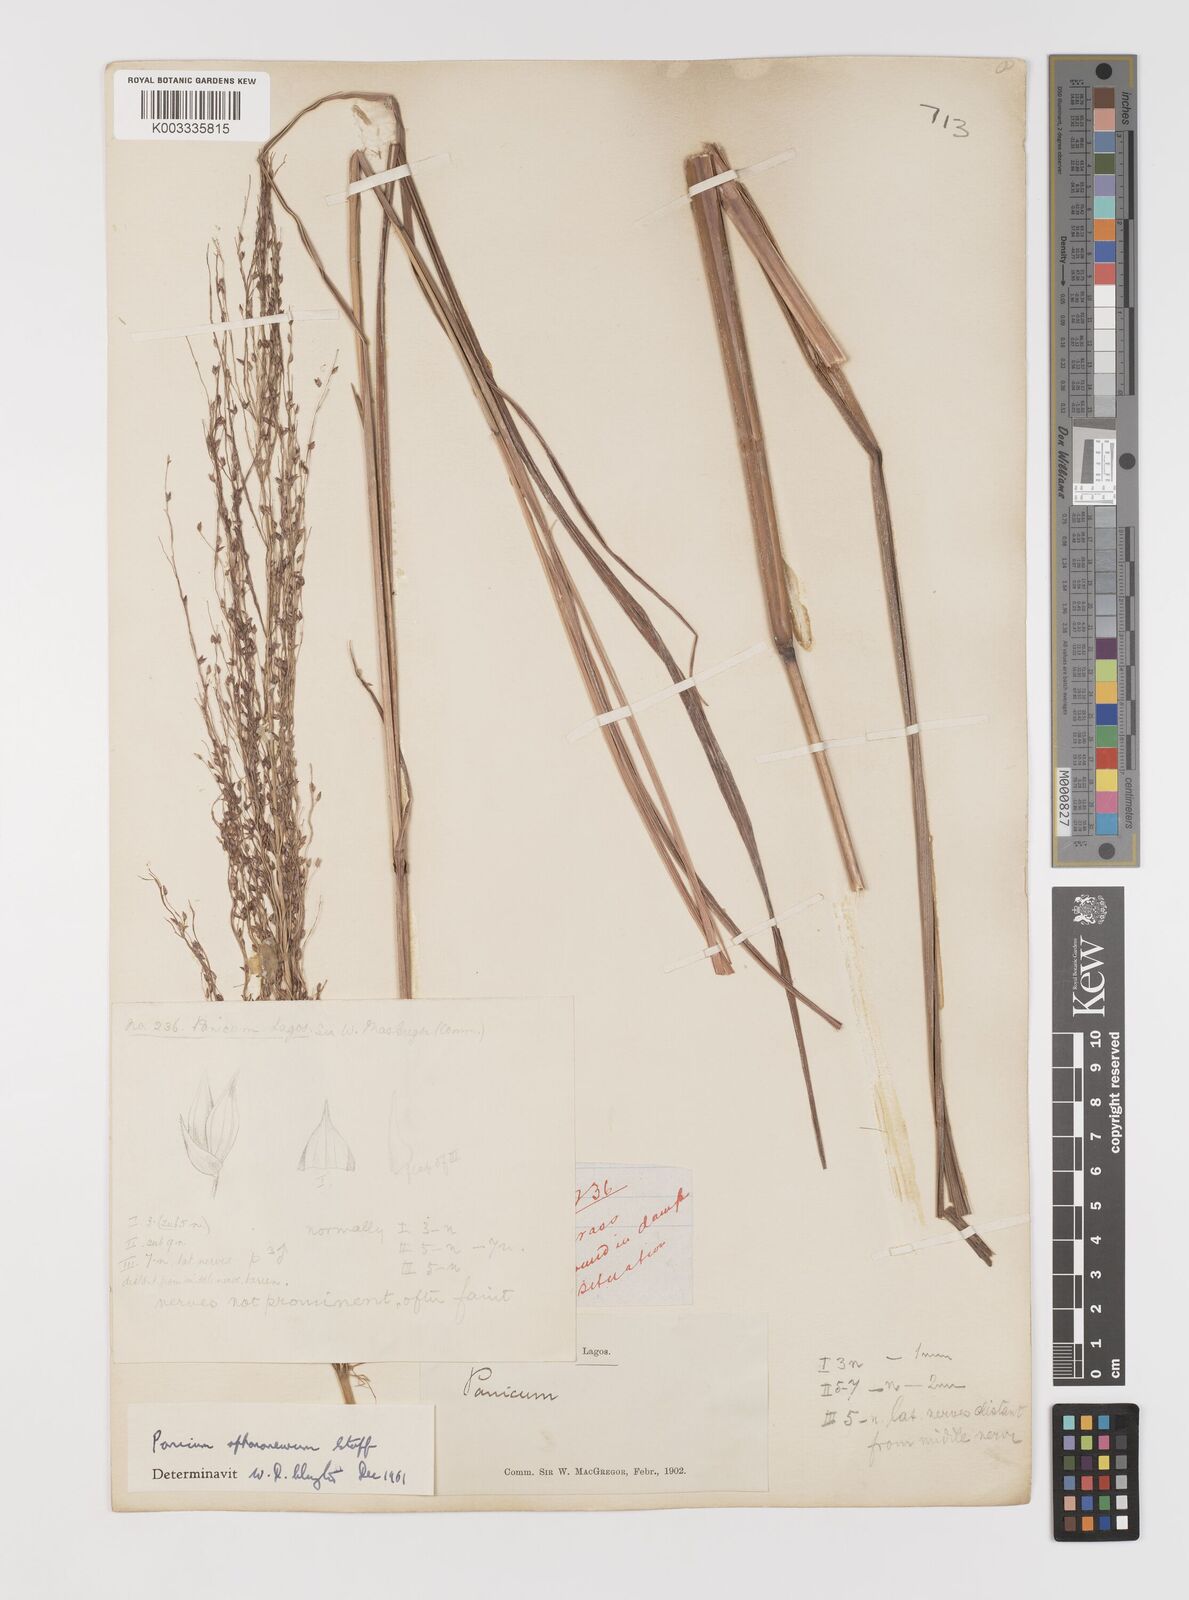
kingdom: Plantae
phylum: Tracheophyta
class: Liliopsida
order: Poales
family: Poaceae
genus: Panicum
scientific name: Panicum fluviicola
